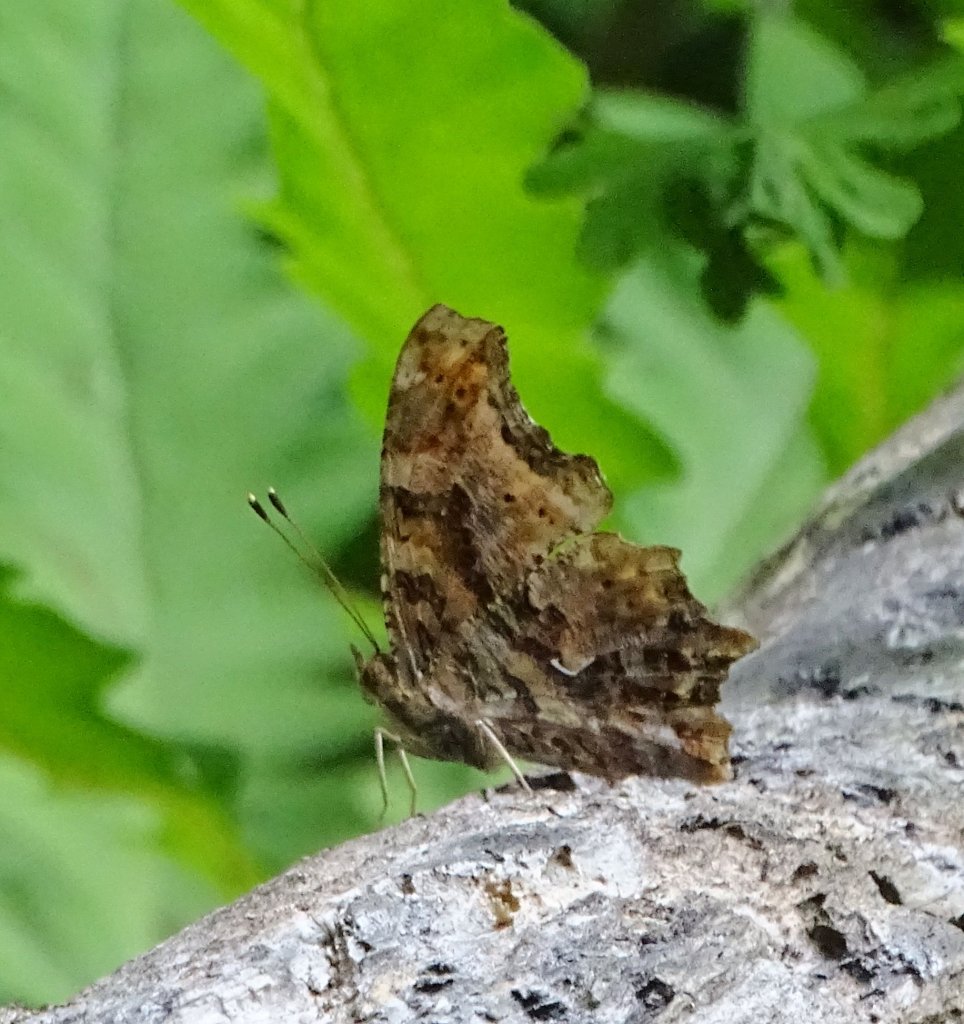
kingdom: Animalia
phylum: Arthropoda
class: Insecta
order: Lepidoptera
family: Nymphalidae
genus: Polygonia
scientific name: Polygonia comma
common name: Eastern Comma
